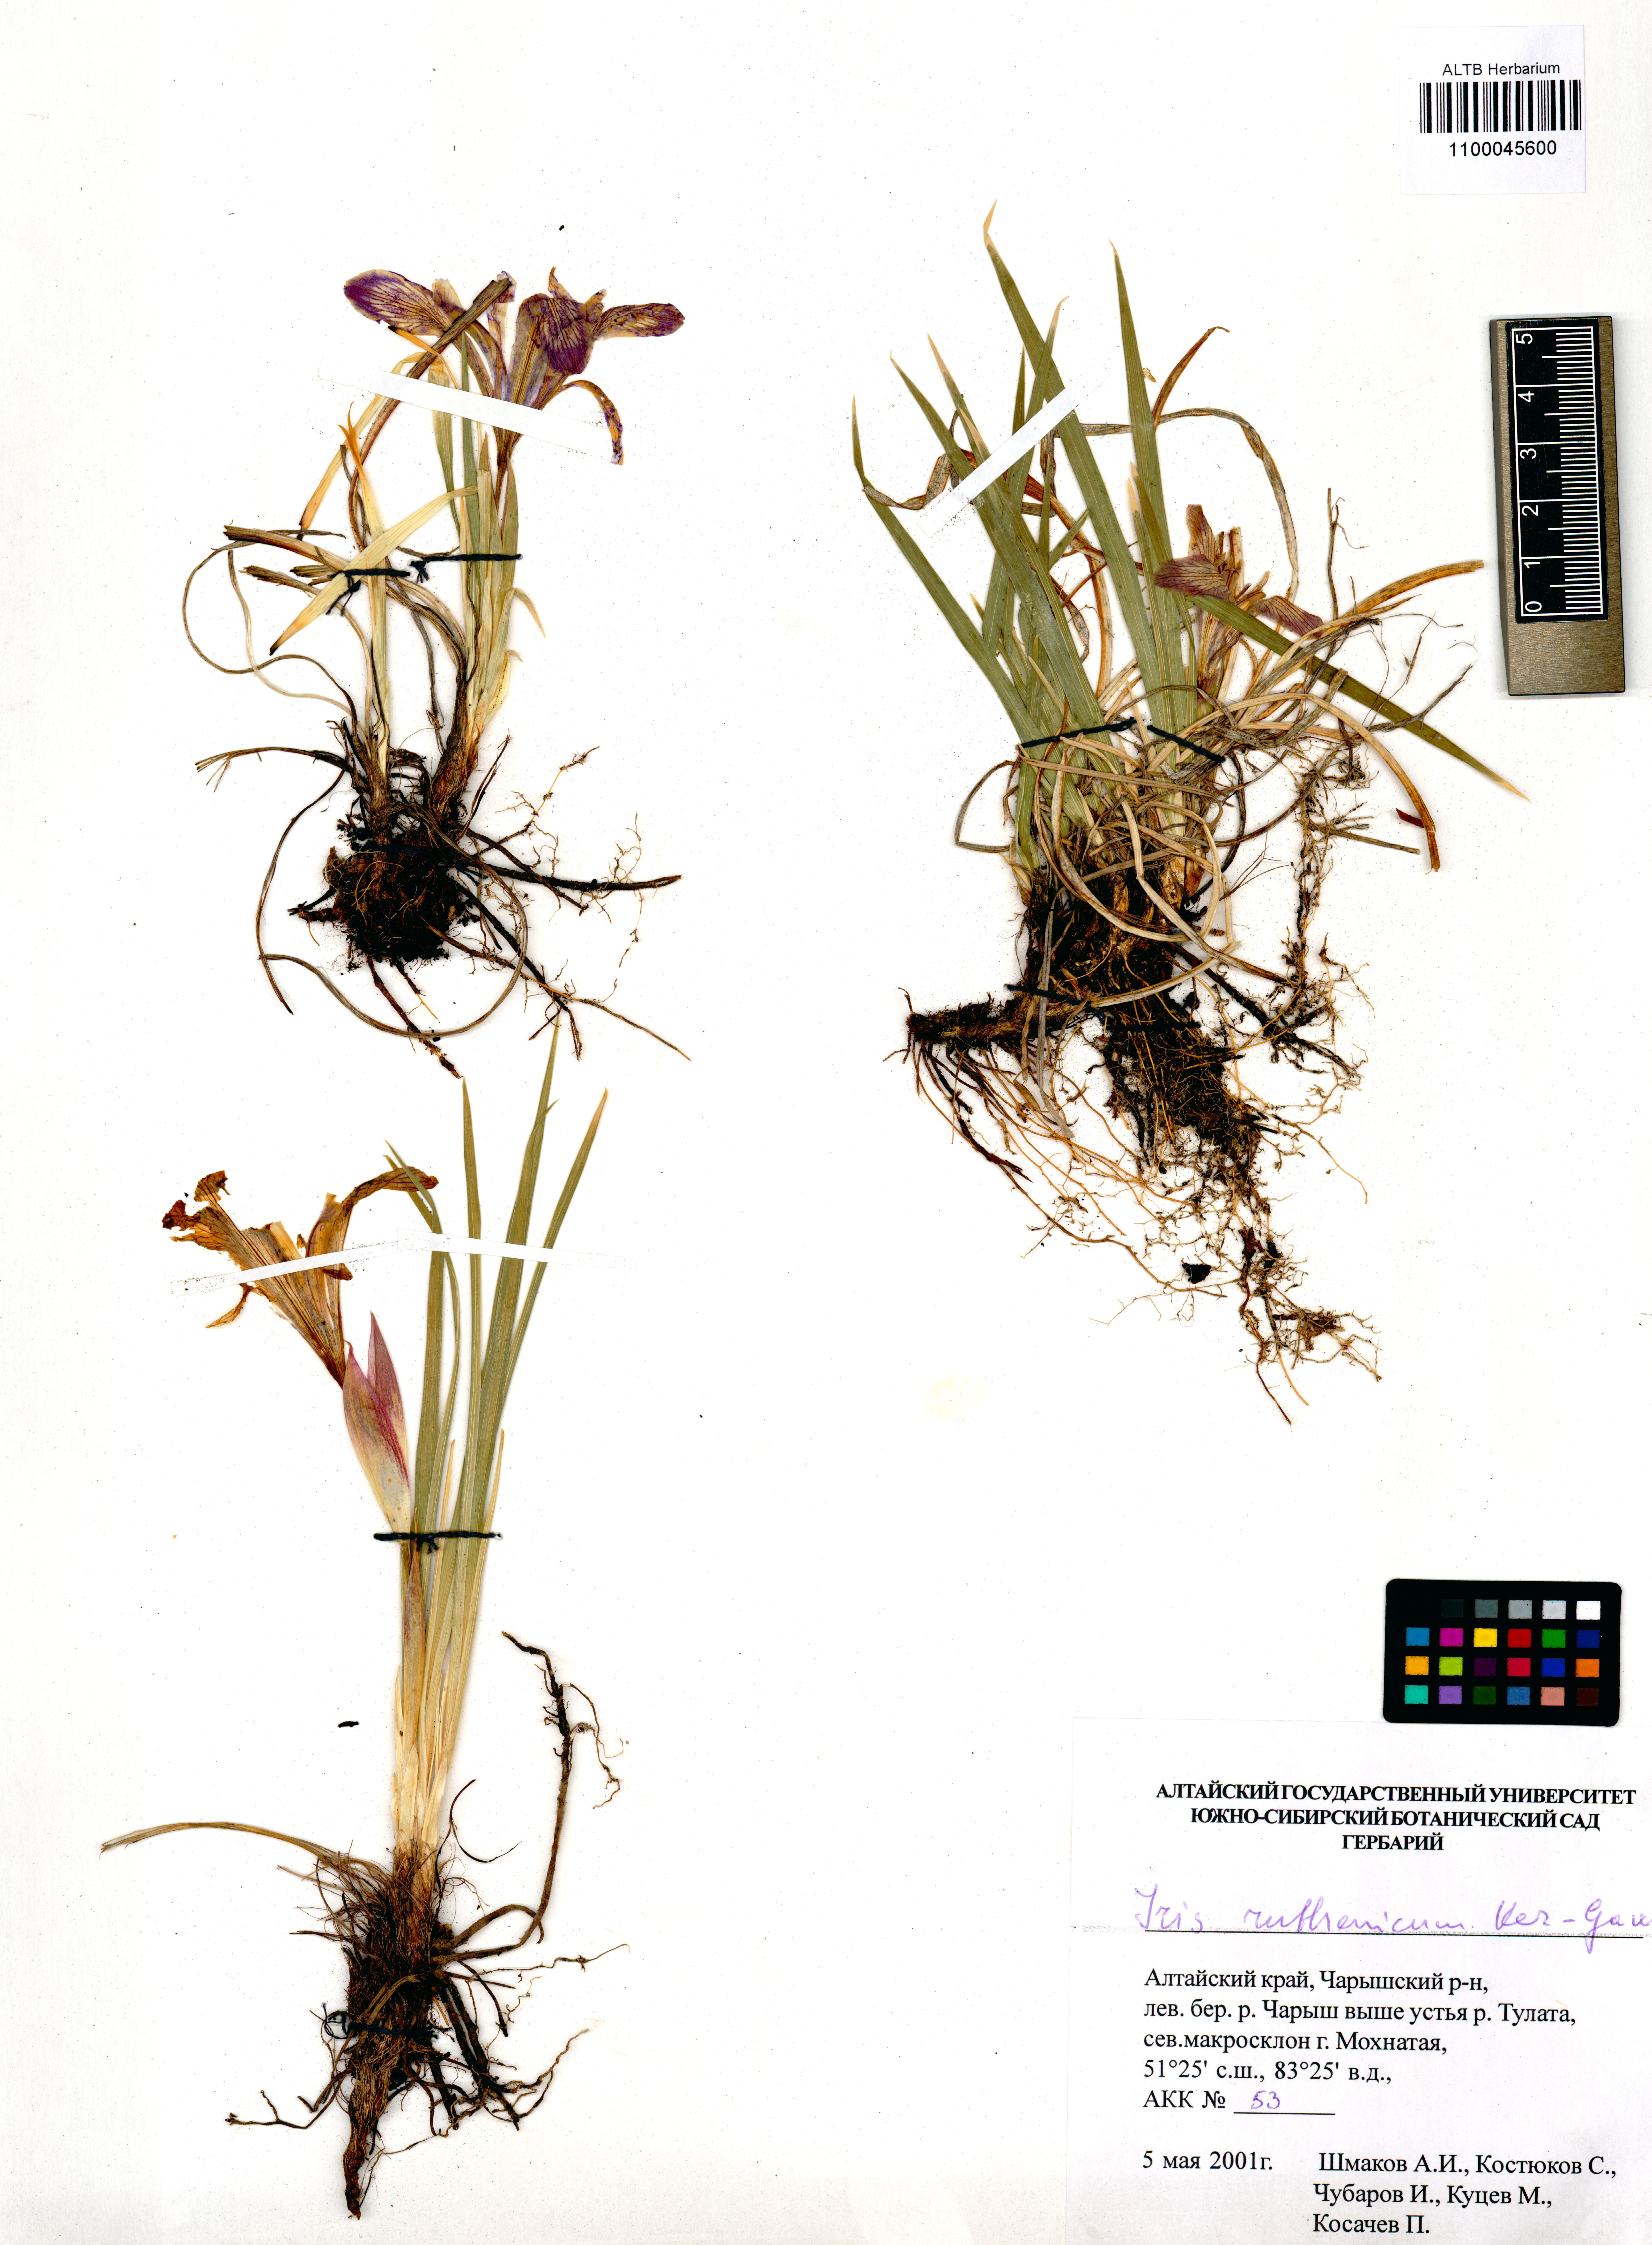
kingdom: Plantae
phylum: Tracheophyta
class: Liliopsida
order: Asparagales
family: Iridaceae
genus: Iris
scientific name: Iris ruthenica
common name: Purple-bract iris
